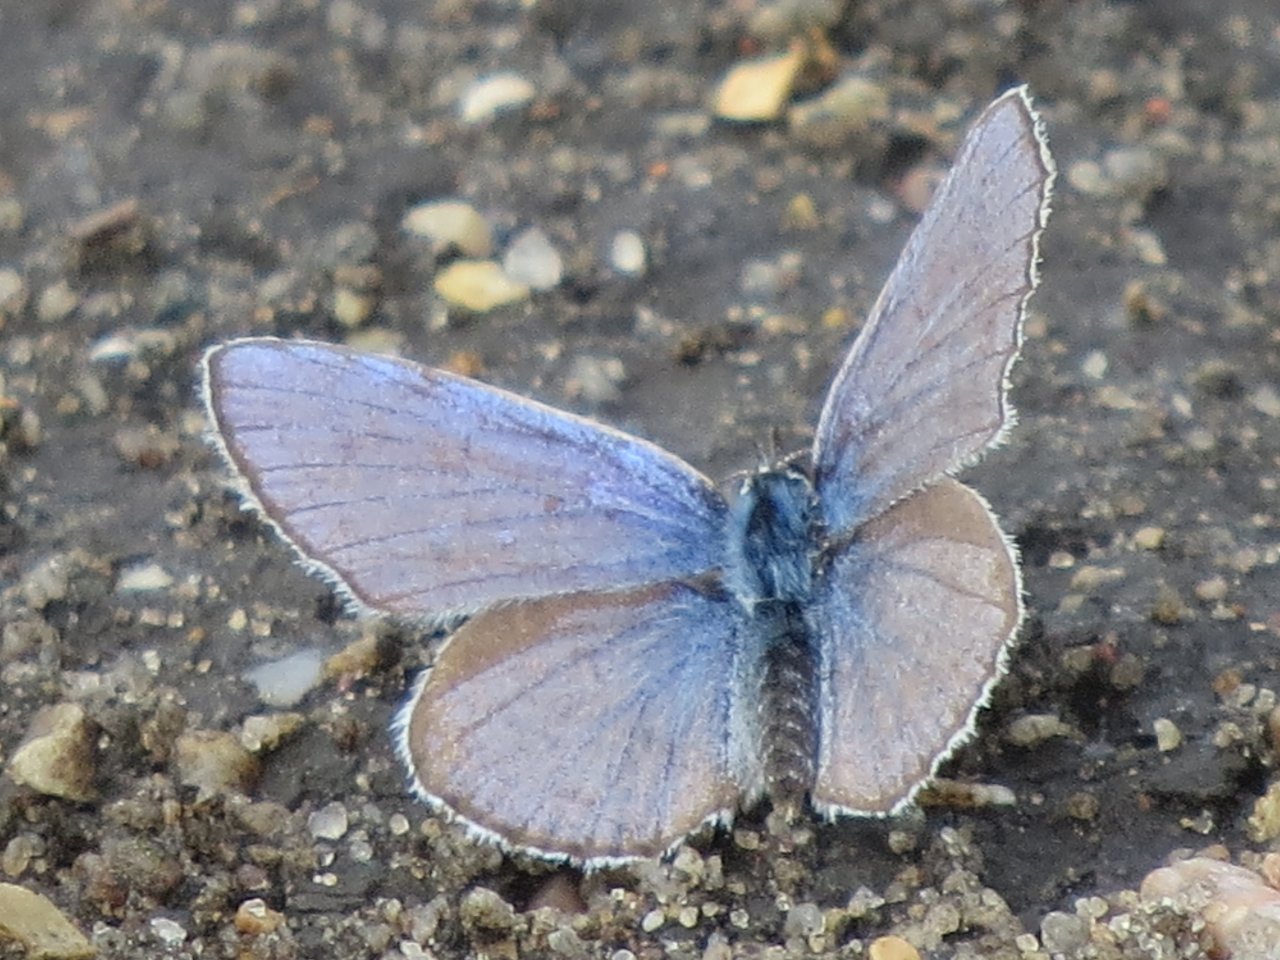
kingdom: Animalia
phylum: Arthropoda
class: Insecta
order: Lepidoptera
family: Lycaenidae
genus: Plebejus
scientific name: Plebejus saepiolus
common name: Greenish Blue
